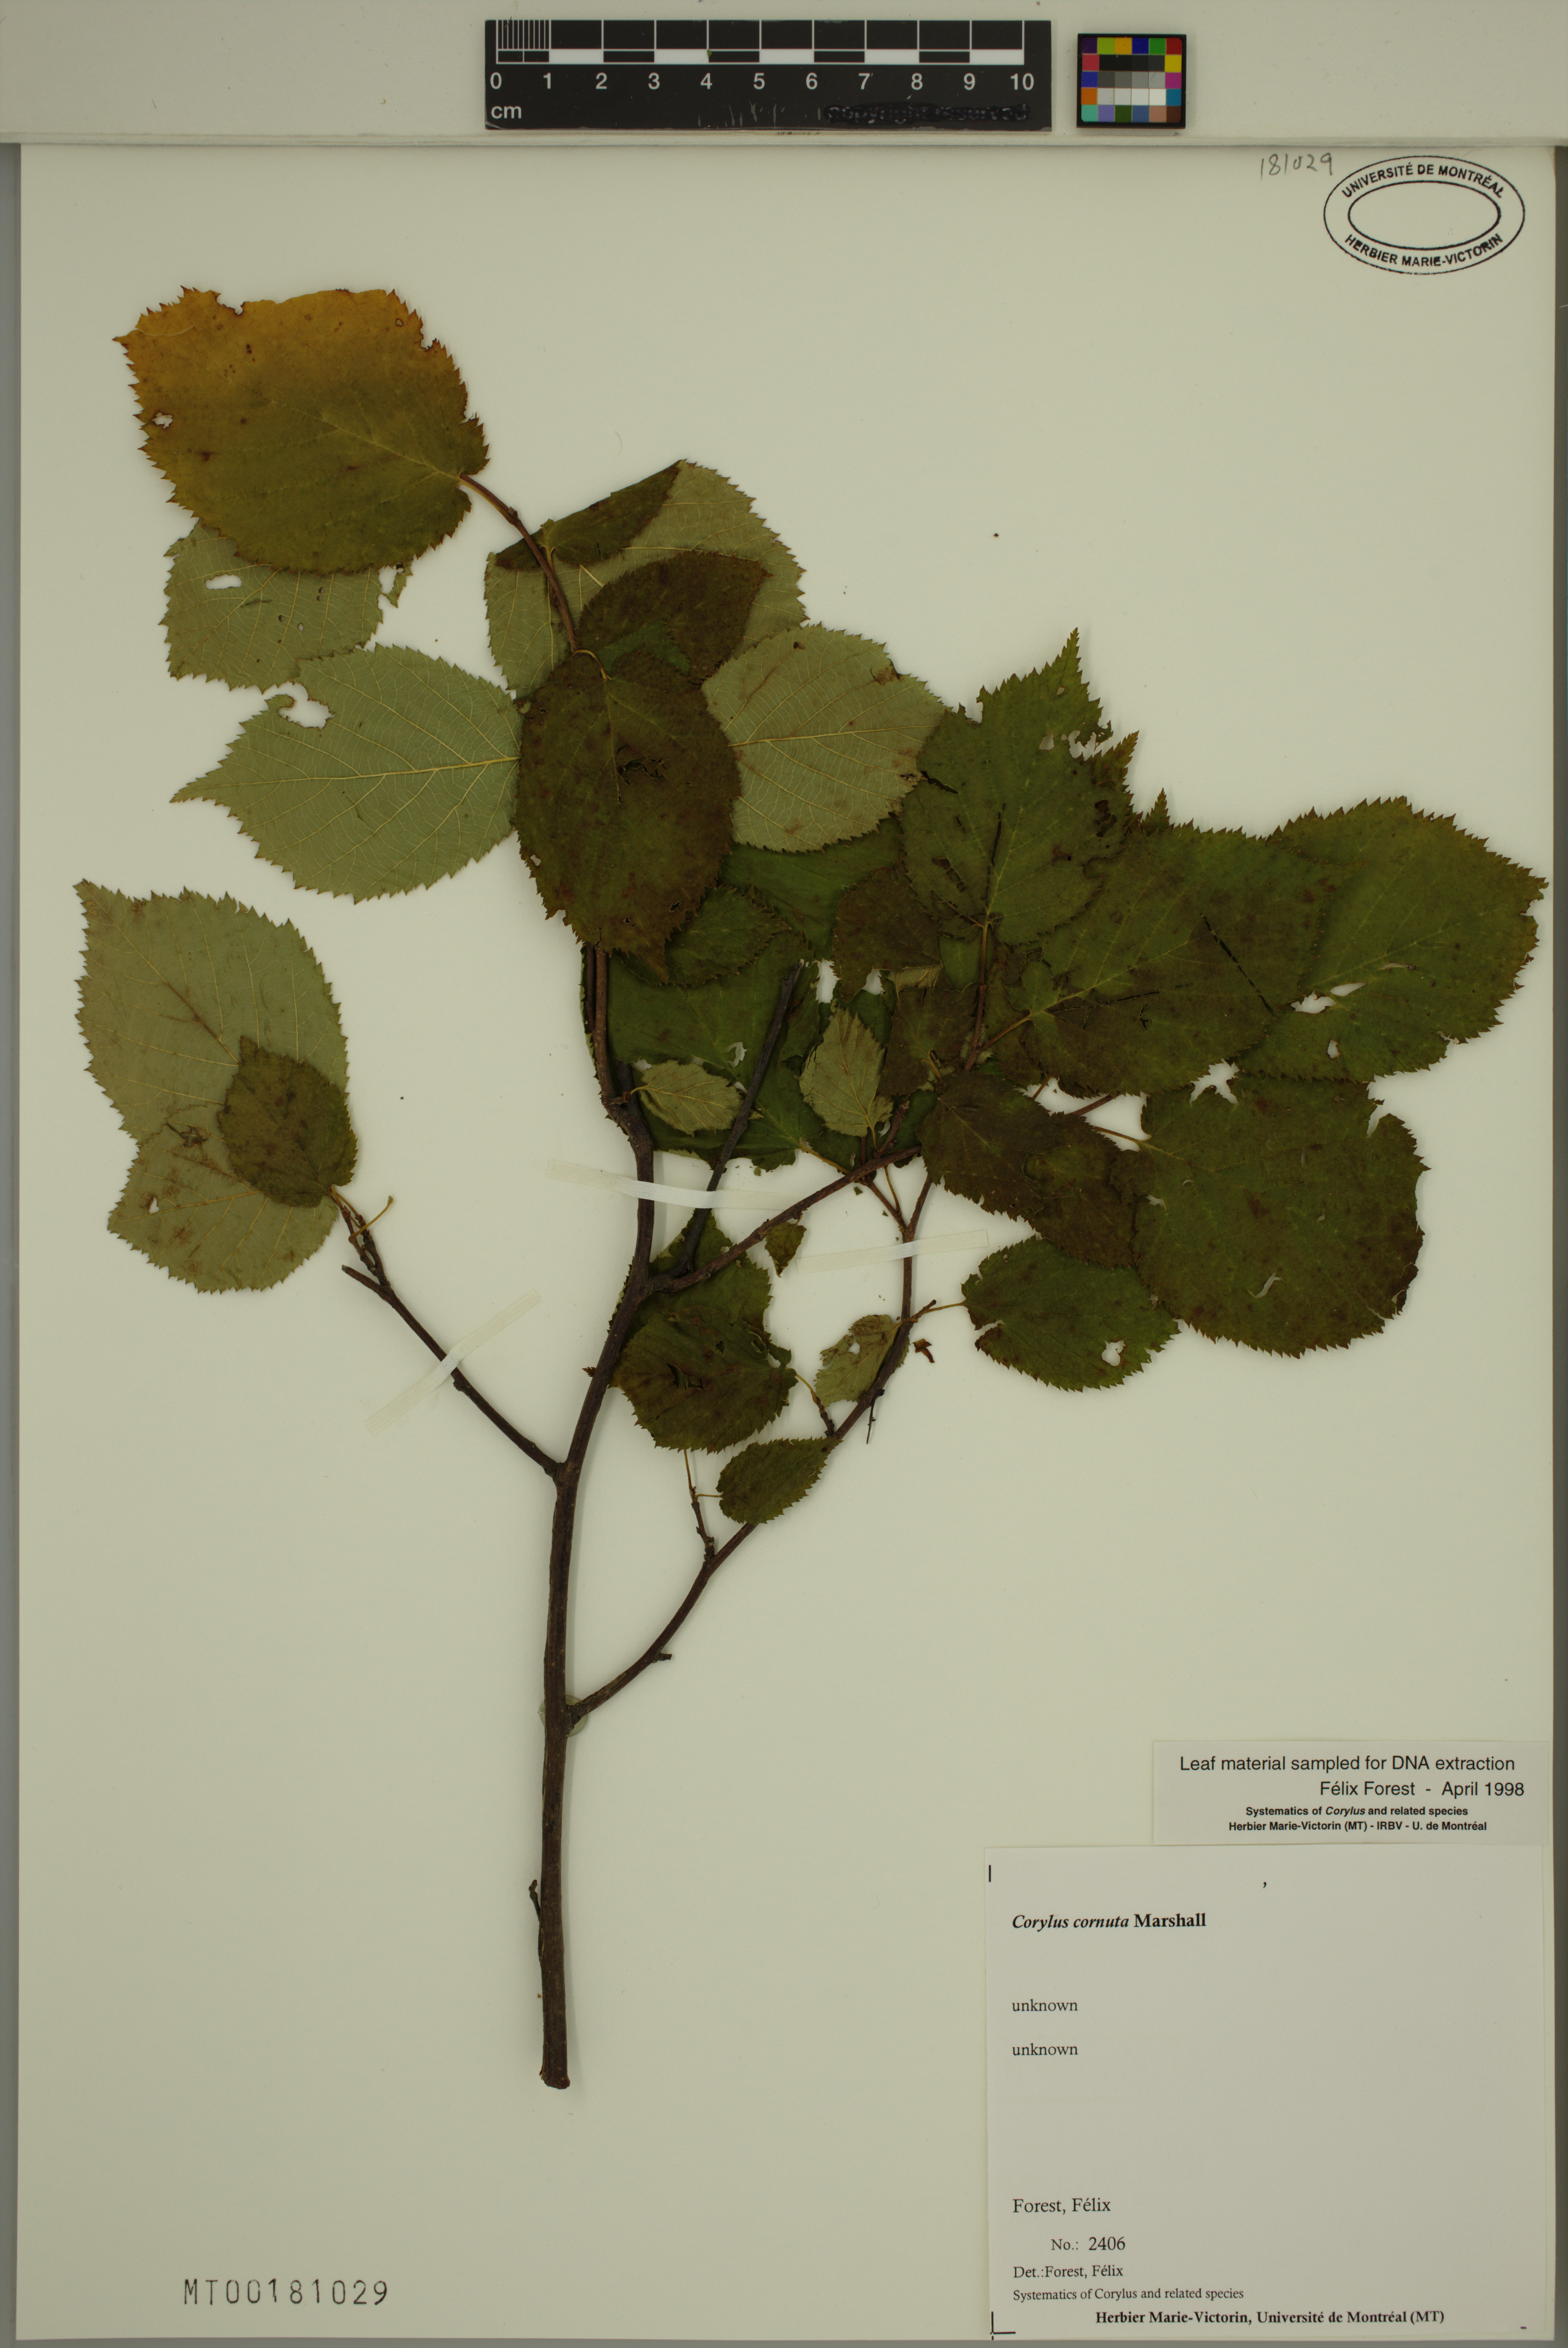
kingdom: Plantae
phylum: Tracheophyta
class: Magnoliopsida
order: Fagales
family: Betulaceae
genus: Corylus
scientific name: Corylus cornuta
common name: Beaked hazel
